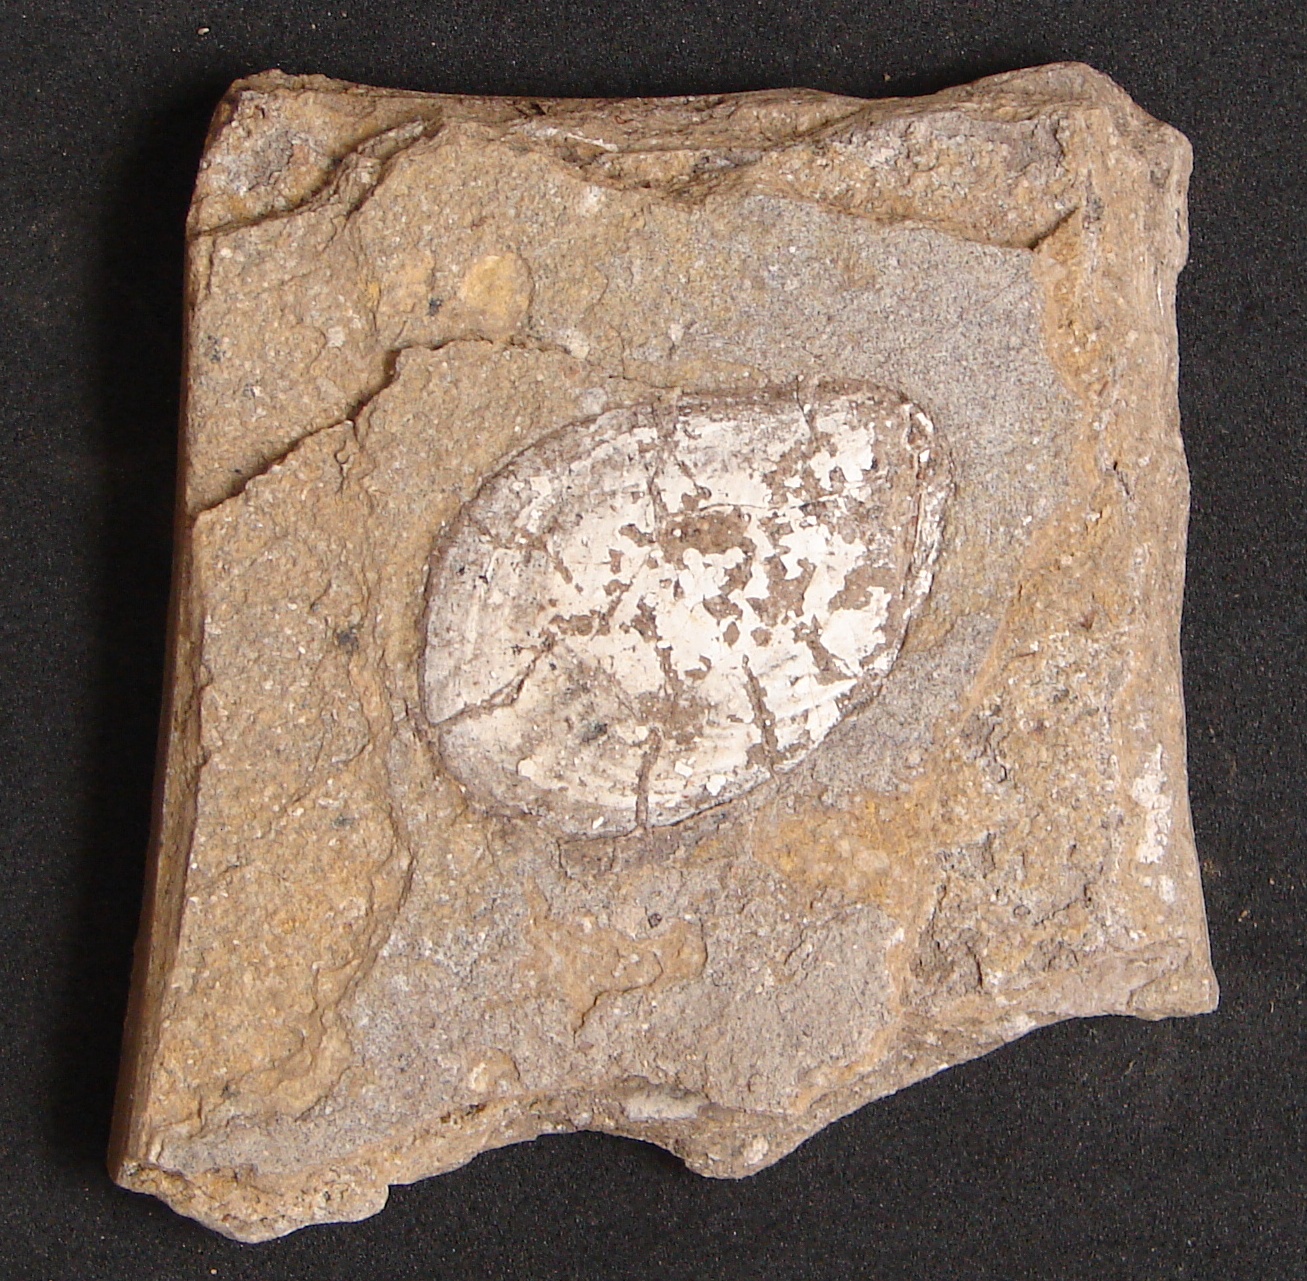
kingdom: Animalia
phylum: Mollusca
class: Bivalvia
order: Myalinida
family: Inoceramidae
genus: Inoceramus
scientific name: Inoceramus
